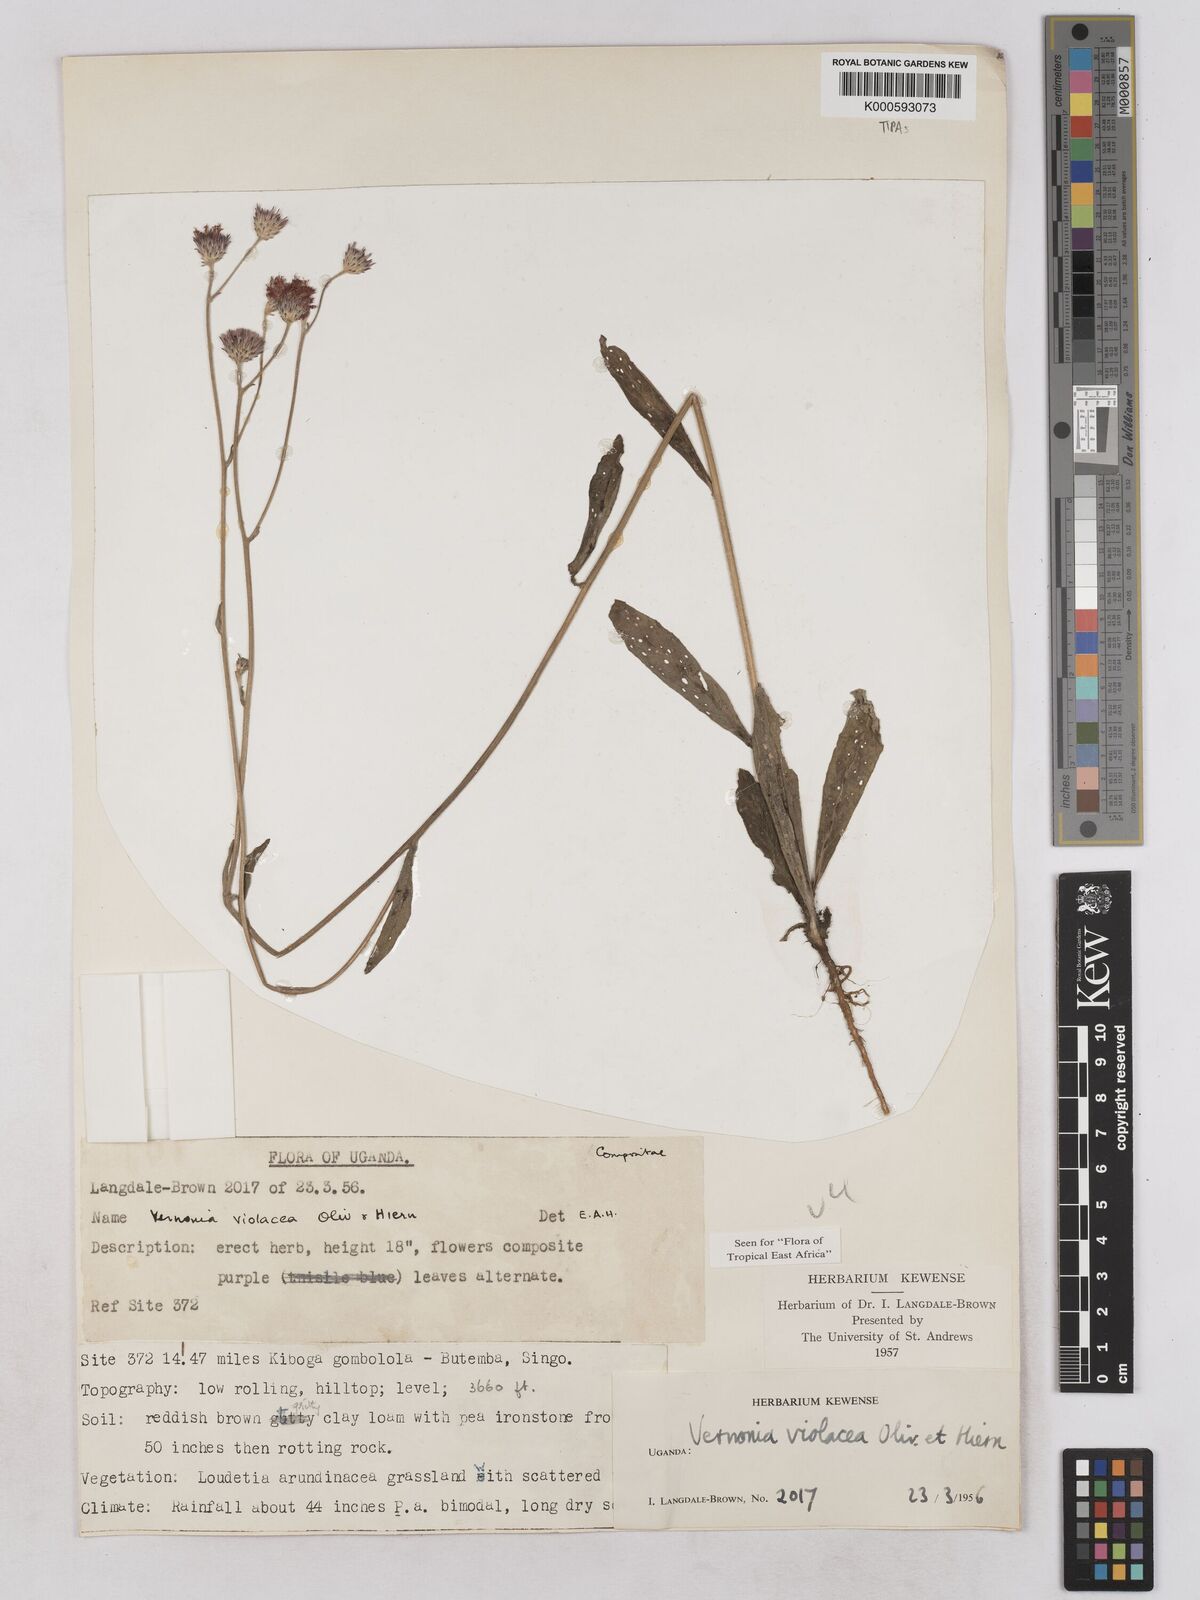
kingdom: Plantae
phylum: Tracheophyta
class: Magnoliopsida
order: Asterales
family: Asteraceae
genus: Vernonia
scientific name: Vernonia violacea
